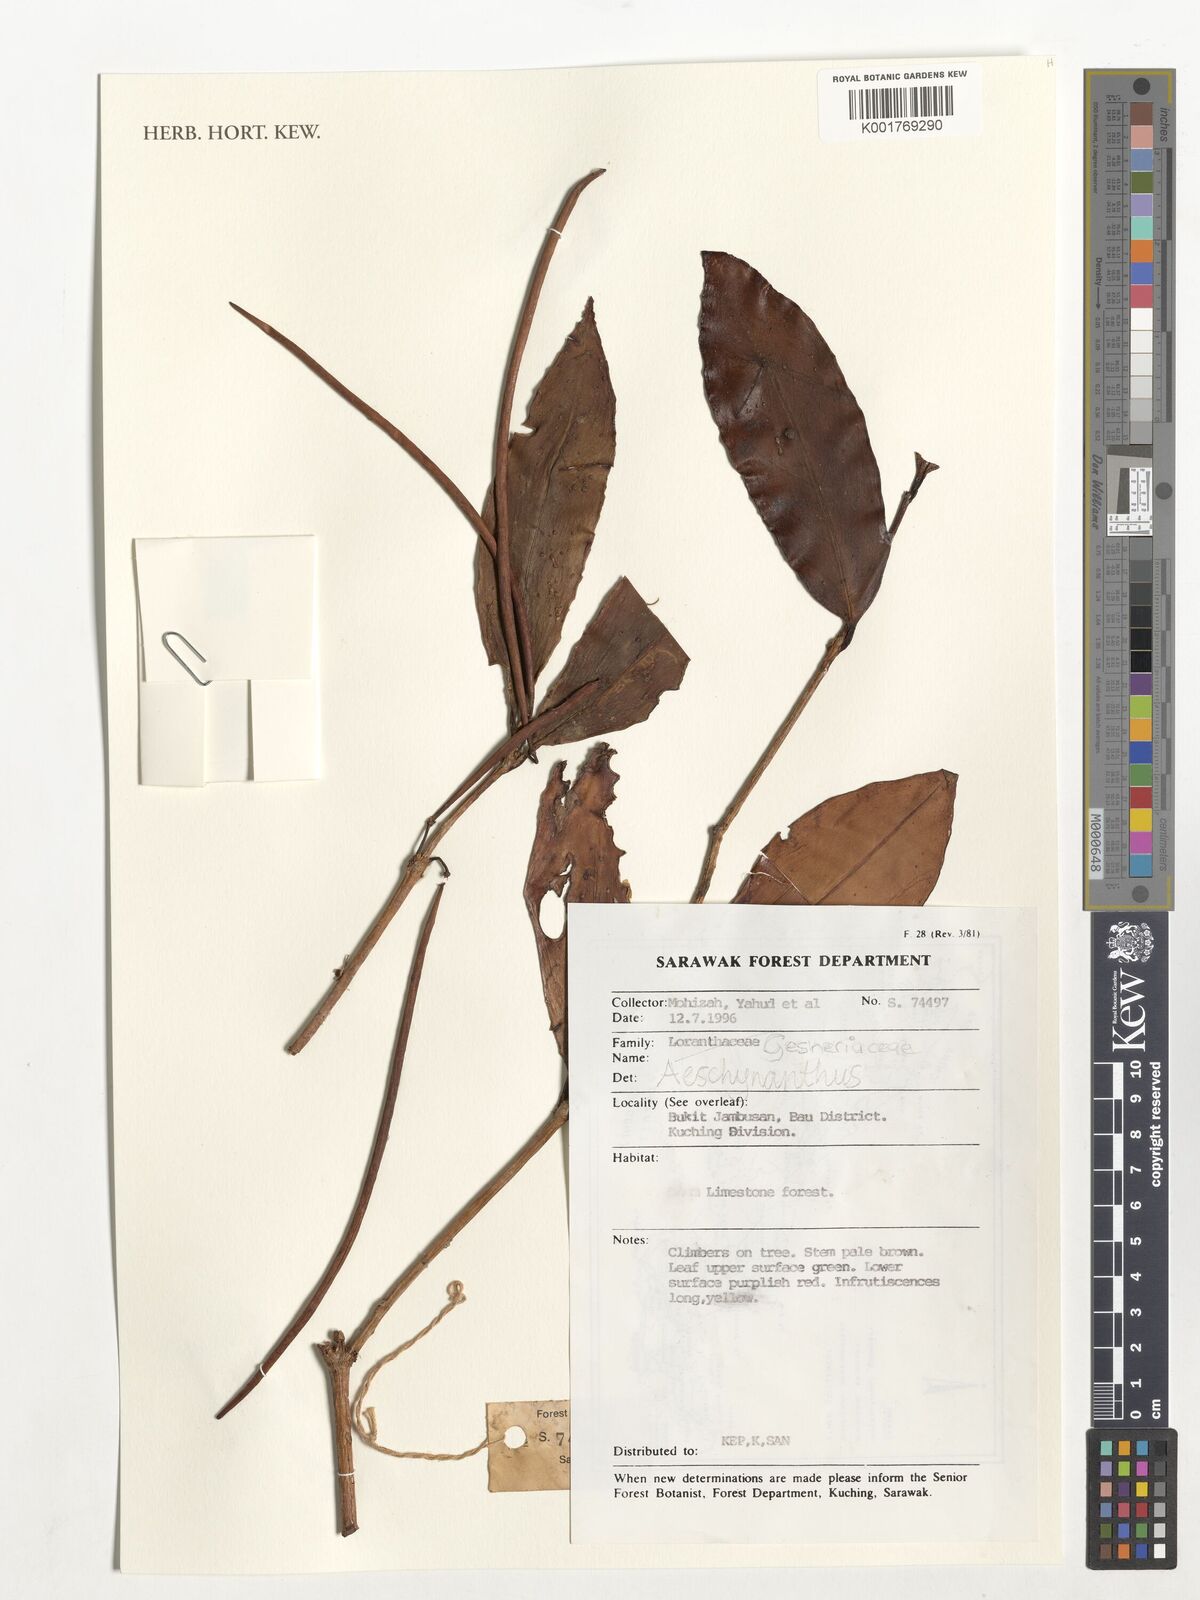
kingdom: Plantae
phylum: Tracheophyta
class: Magnoliopsida
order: Lamiales
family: Gesneriaceae
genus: Aeschynanthus
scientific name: Aeschynanthus
